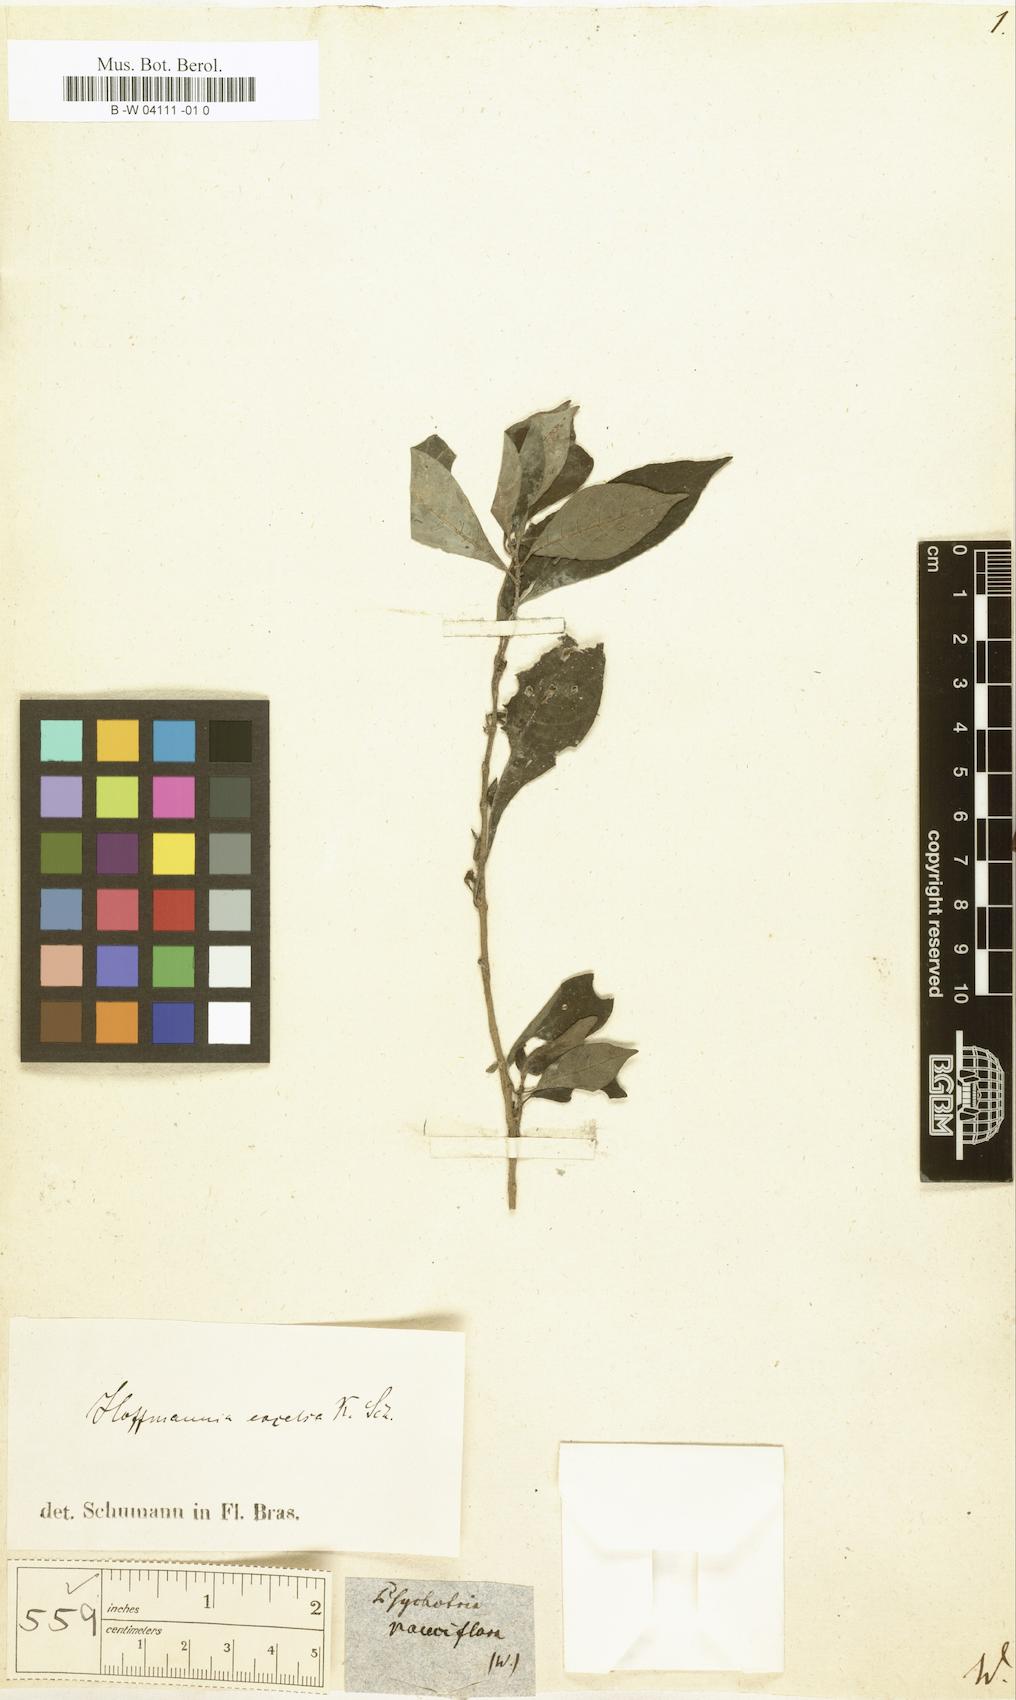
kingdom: Plantae
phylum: Tracheophyta
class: Magnoliopsida
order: Gentianales
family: Rubiaceae
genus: Psychotria
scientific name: Psychotria pauciflora
